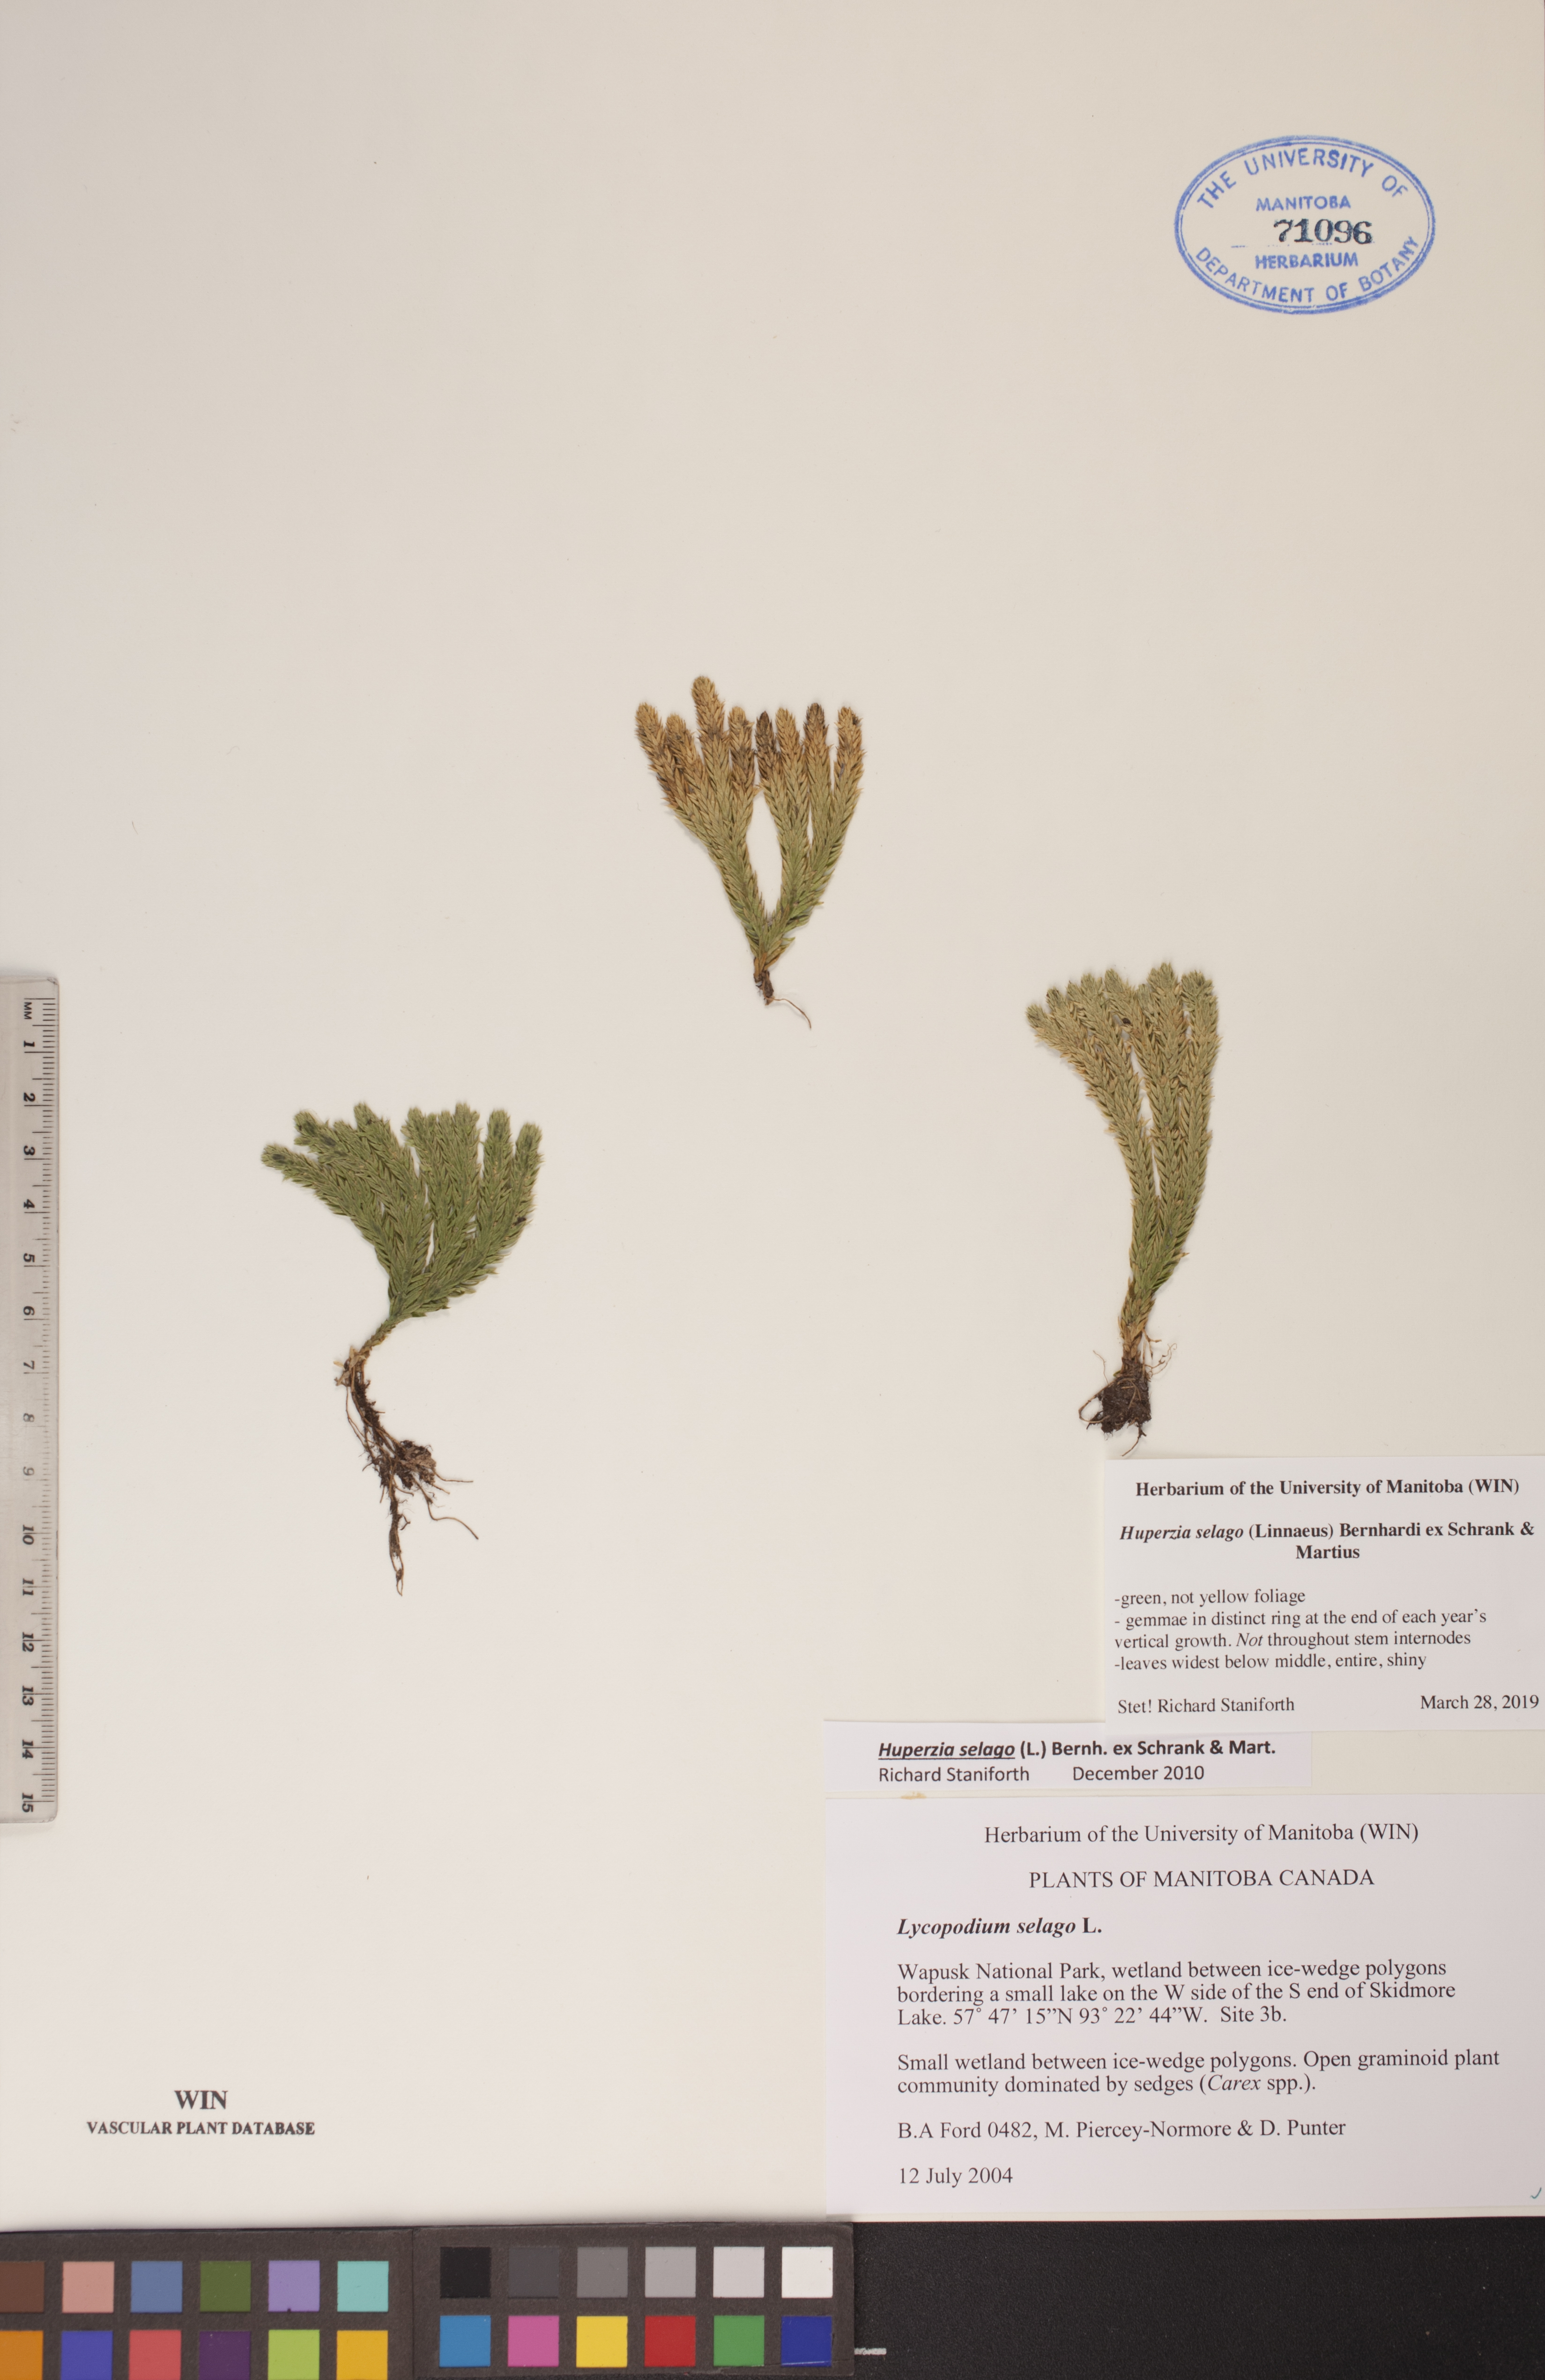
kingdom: Plantae
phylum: Tracheophyta
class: Lycopodiopsida
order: Lycopodiales
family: Lycopodiaceae
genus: Huperzia
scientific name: Huperzia selago
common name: Northern firmoss
